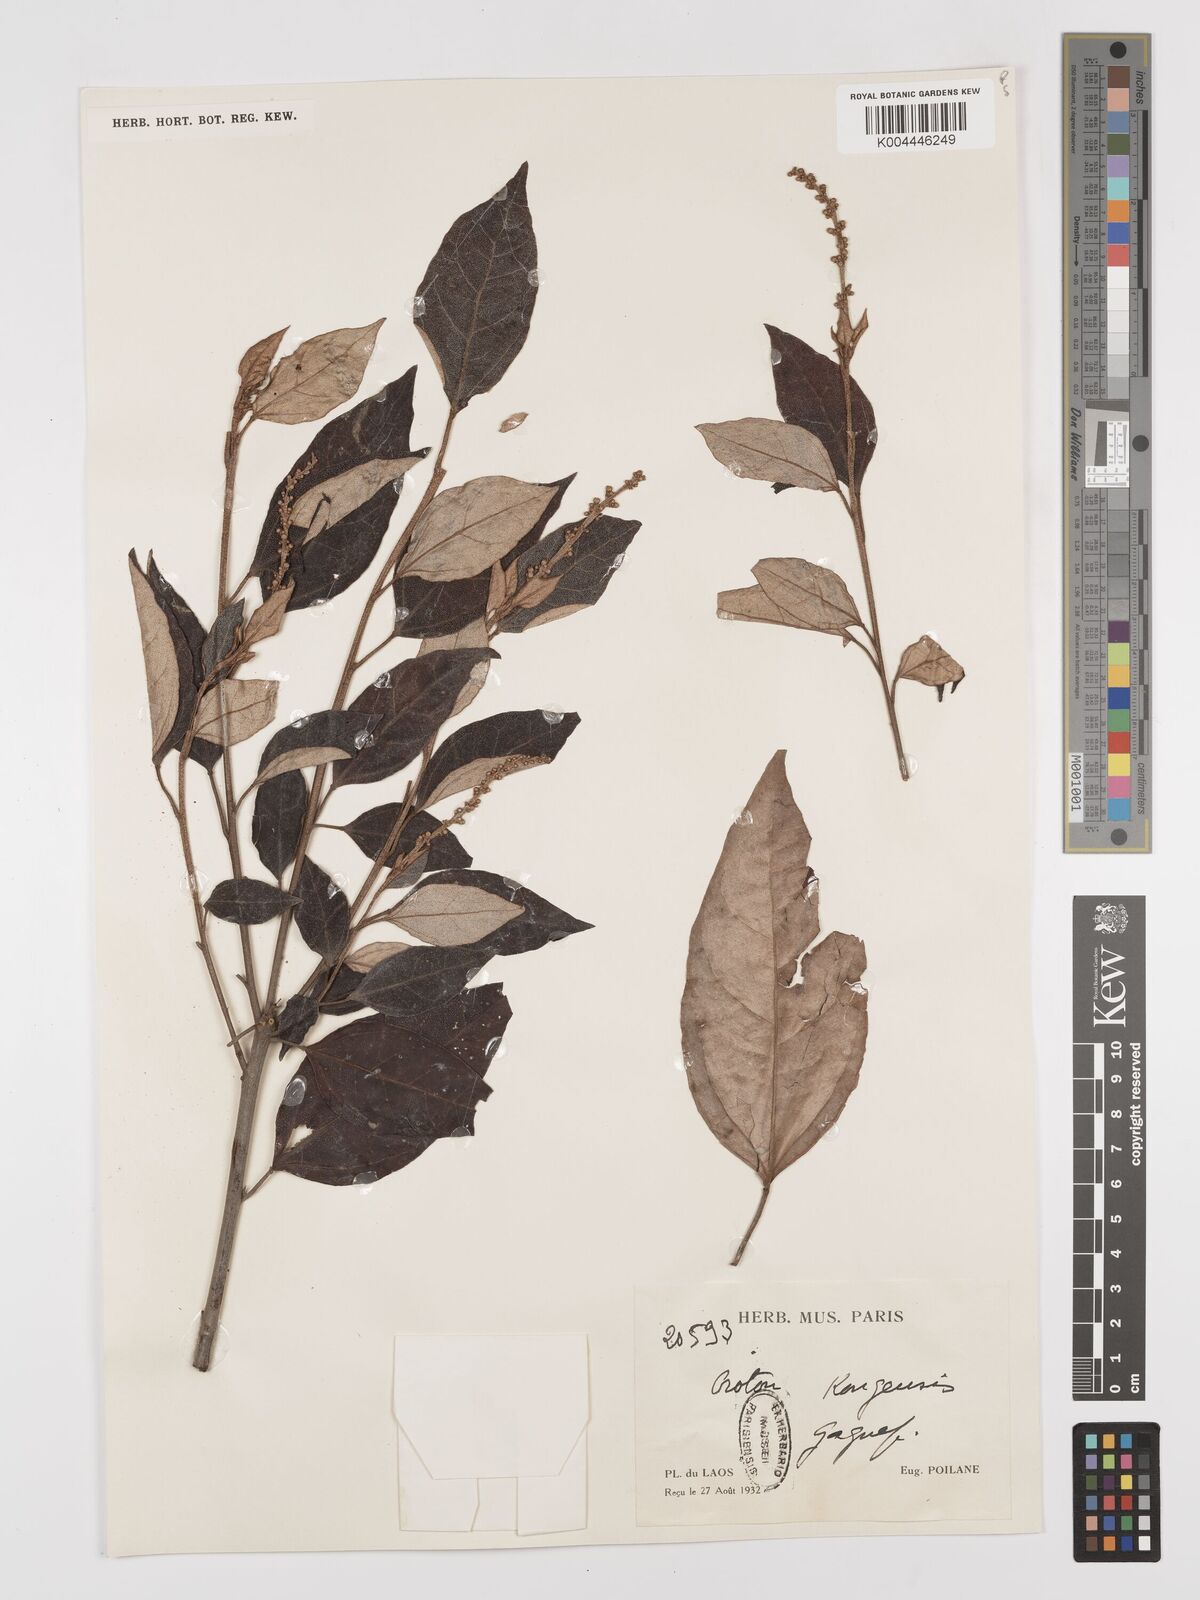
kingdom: Plantae
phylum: Tracheophyta
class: Magnoliopsida
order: Malpighiales
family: Euphorbiaceae
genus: Croton
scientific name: Croton kongensis
